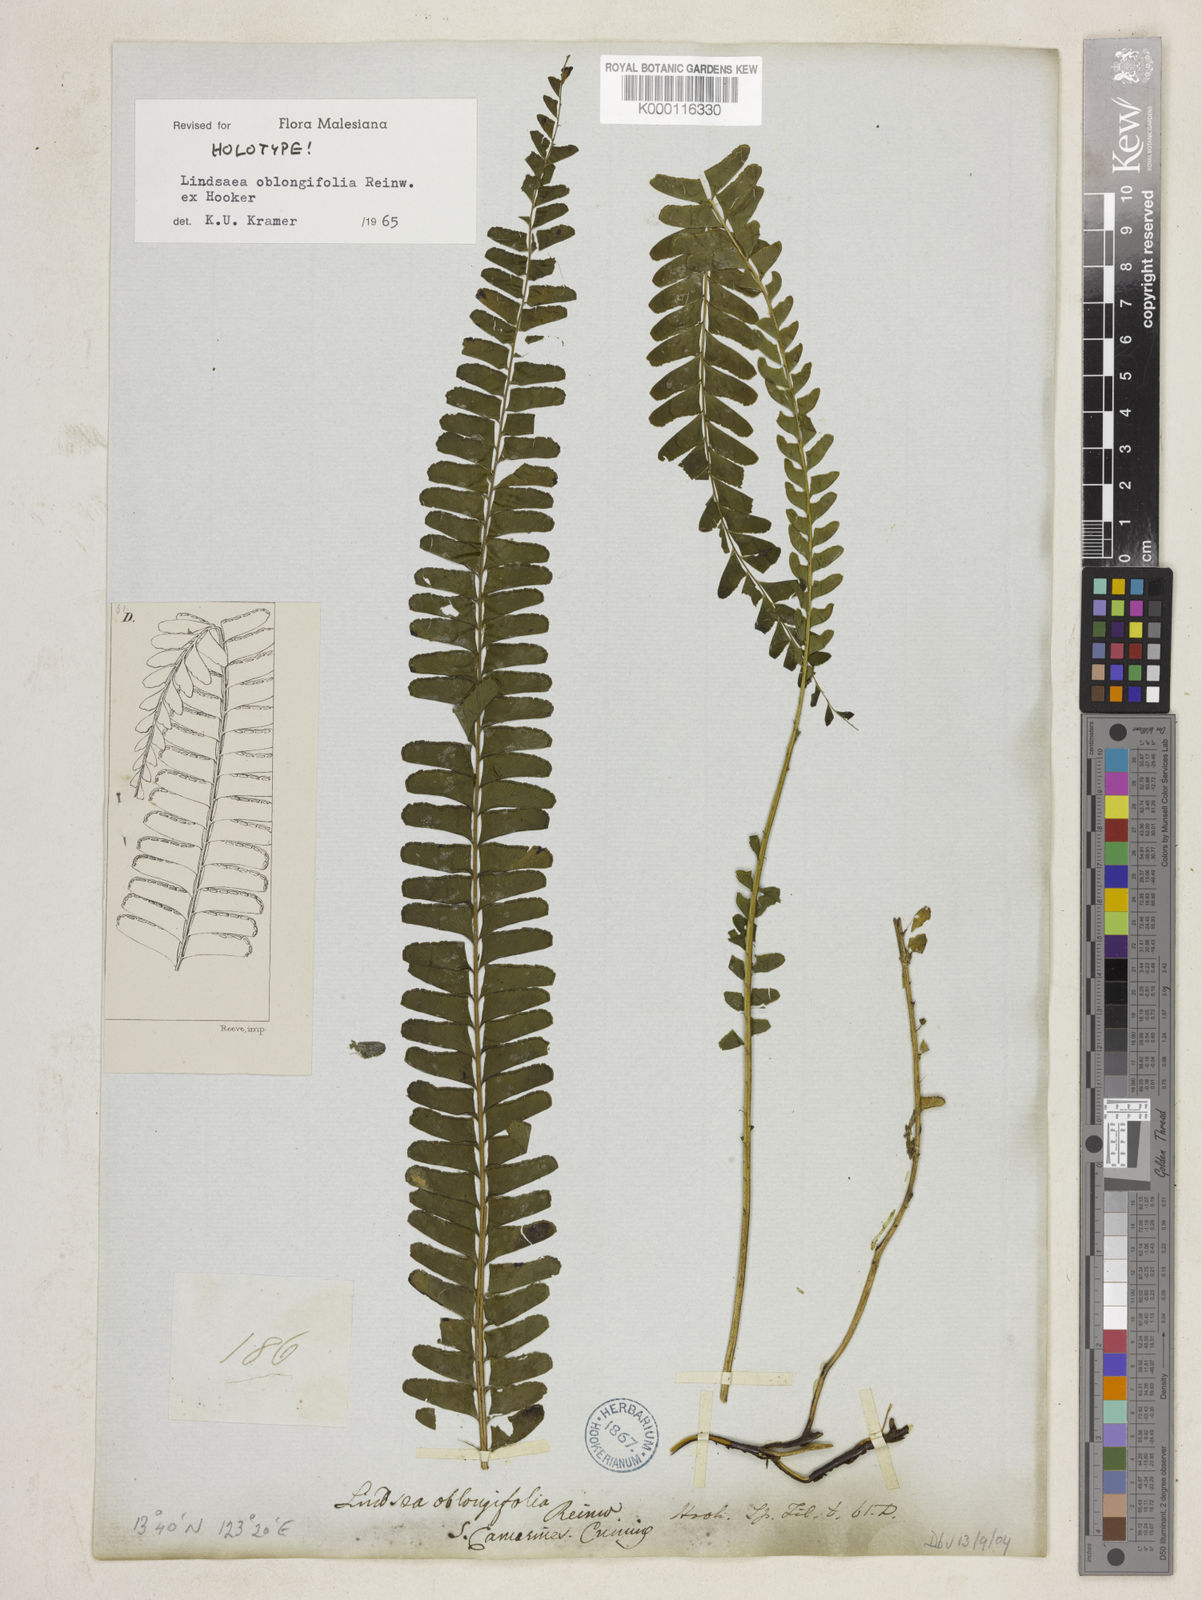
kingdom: Plantae
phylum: Tracheophyta
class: Polypodiopsida
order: Polypodiales
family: Lindsaeaceae
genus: Lindsaea
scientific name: Lindsaea capillacea
